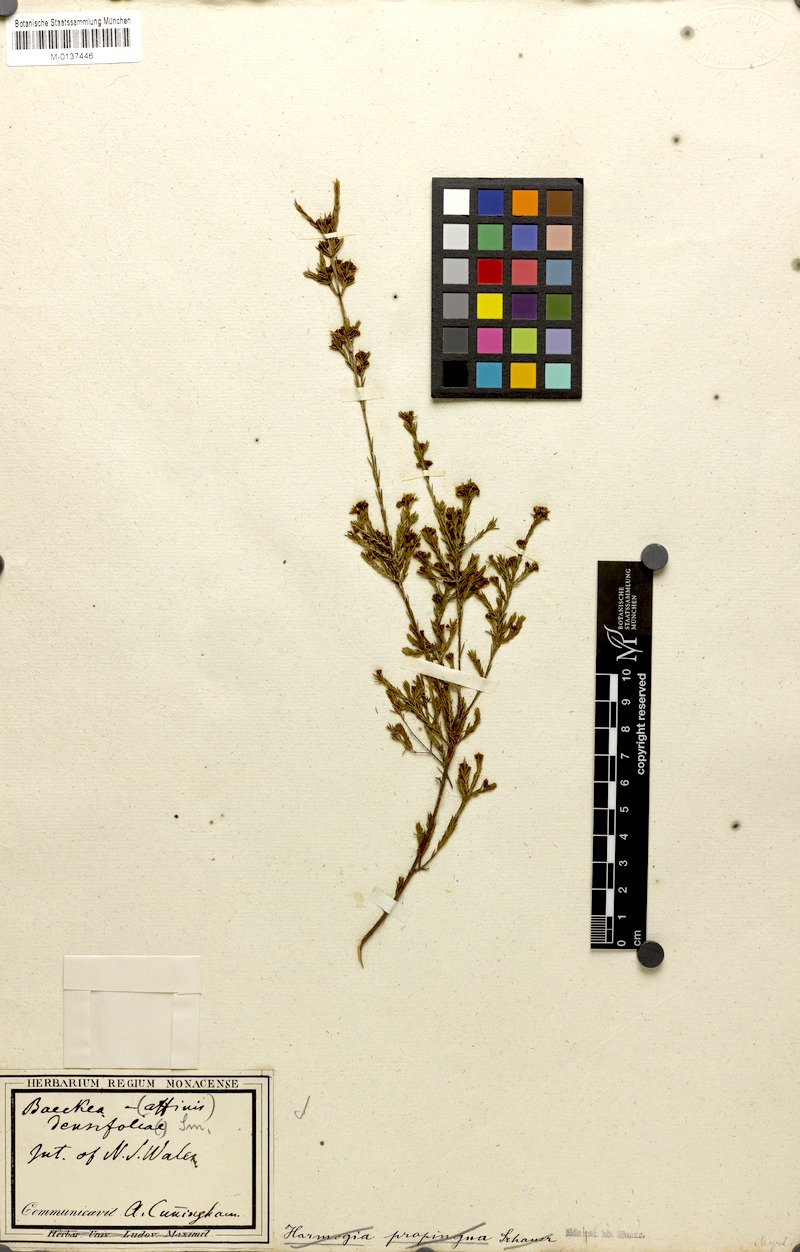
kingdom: Plantae
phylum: Tracheophyta
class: Magnoliopsida
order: Myrtales
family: Myrtaceae
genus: Harmogia
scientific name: Harmogia densifolia
